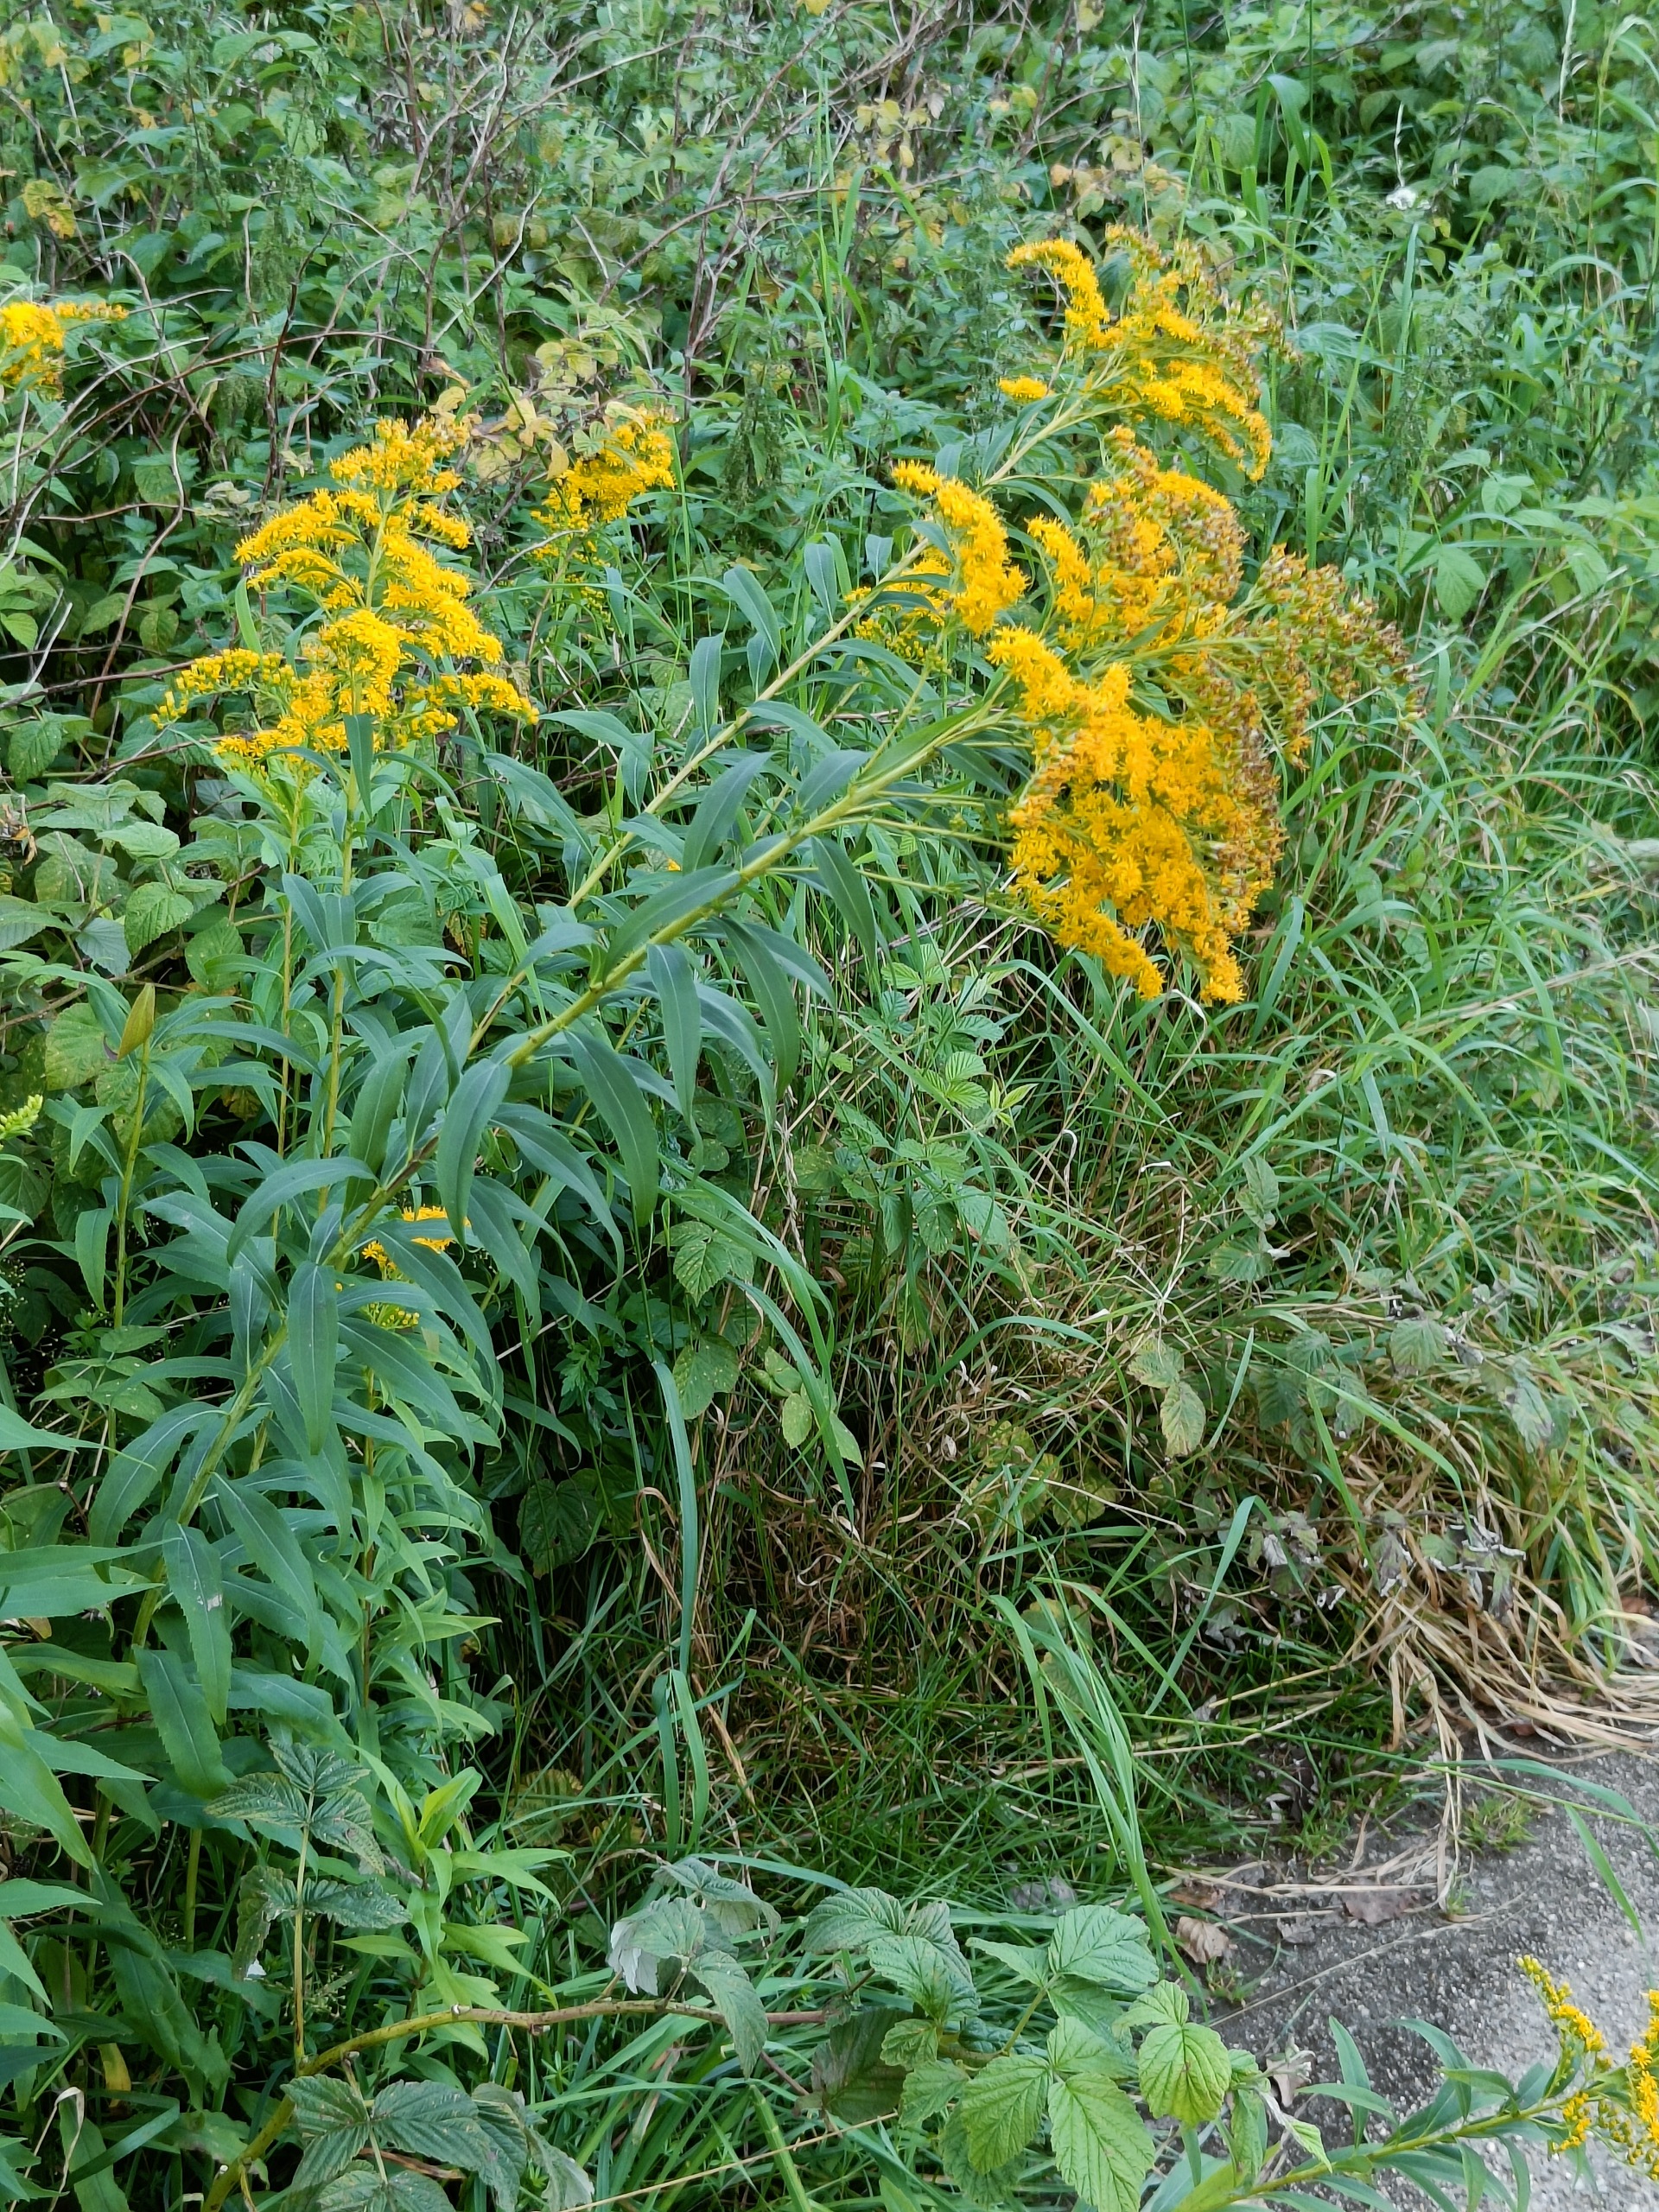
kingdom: Plantae
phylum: Tracheophyta
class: Magnoliopsida
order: Asterales
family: Asteraceae
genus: Solidago
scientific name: Solidago canadensis
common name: Kanadisk gyldenris
